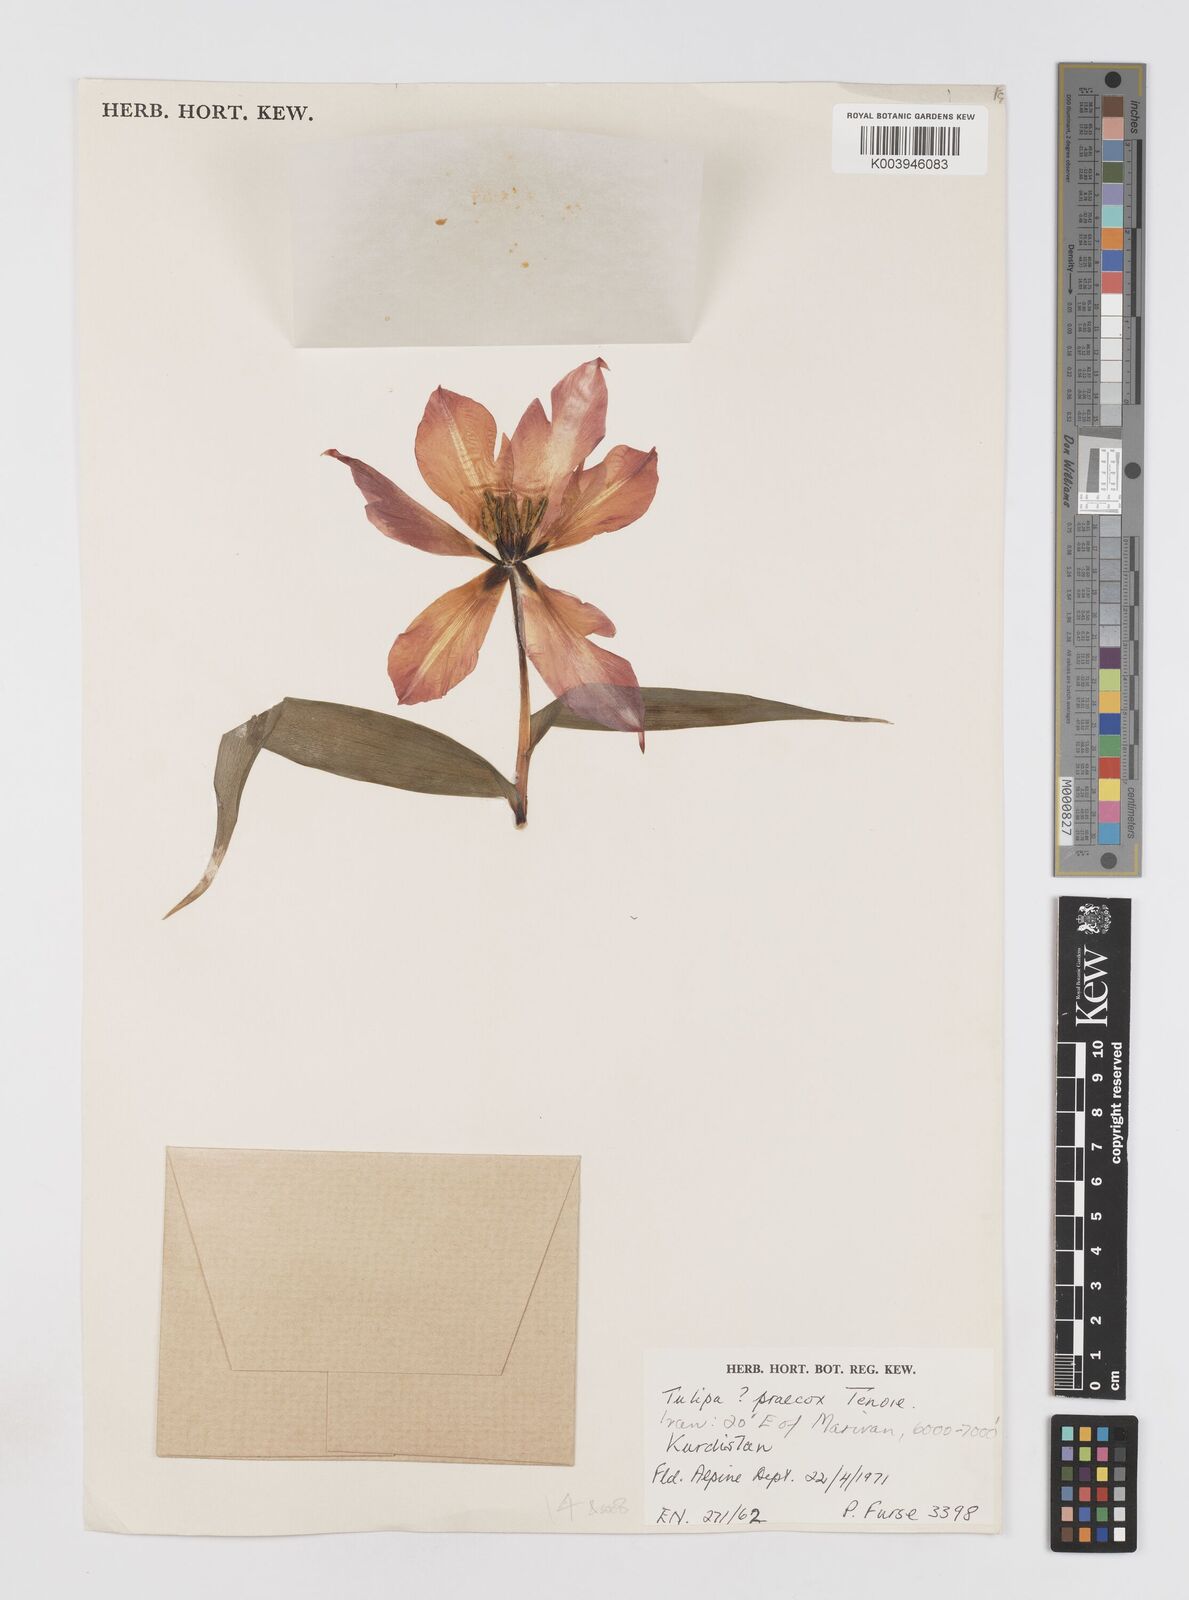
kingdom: Plantae
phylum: Tracheophyta
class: Liliopsida
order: Liliales
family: Liliaceae
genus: Tulipa
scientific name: Tulipa systola
